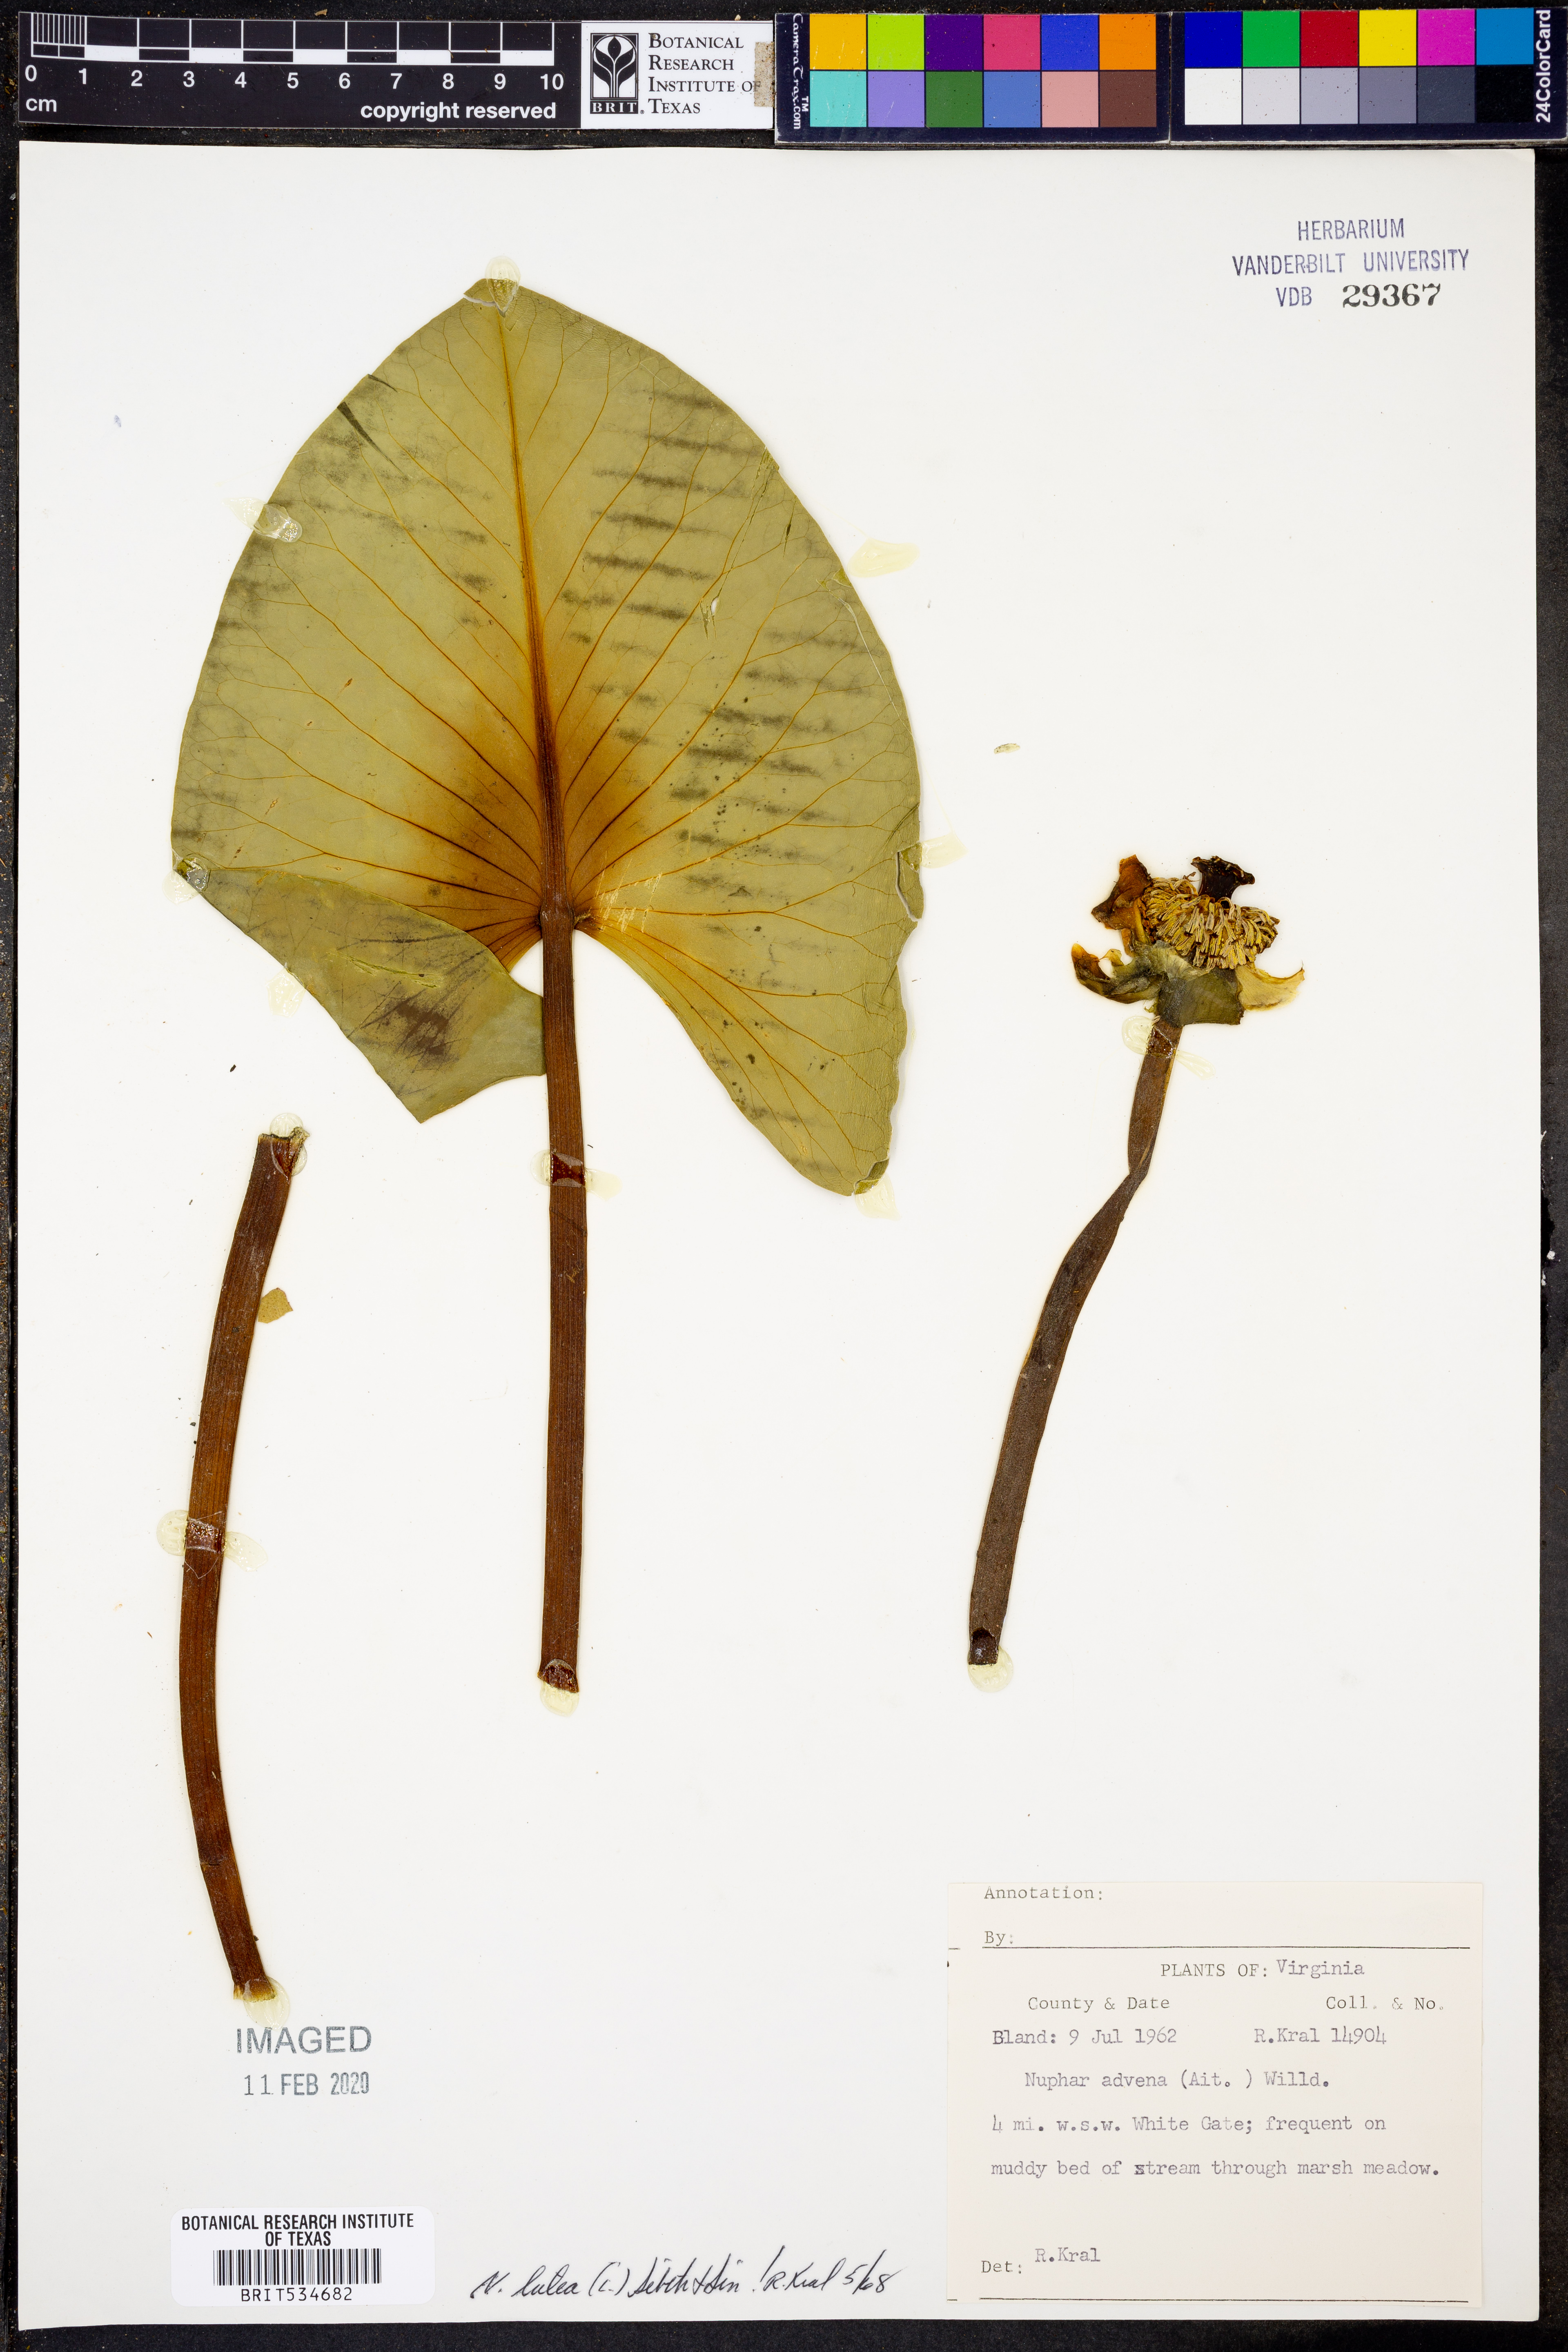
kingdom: Plantae
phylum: Tracheophyta
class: Magnoliopsida
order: Nymphaeales
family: Nymphaeaceae
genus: Nuphar
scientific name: Nuphar lutea
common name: Yellow water-lily
